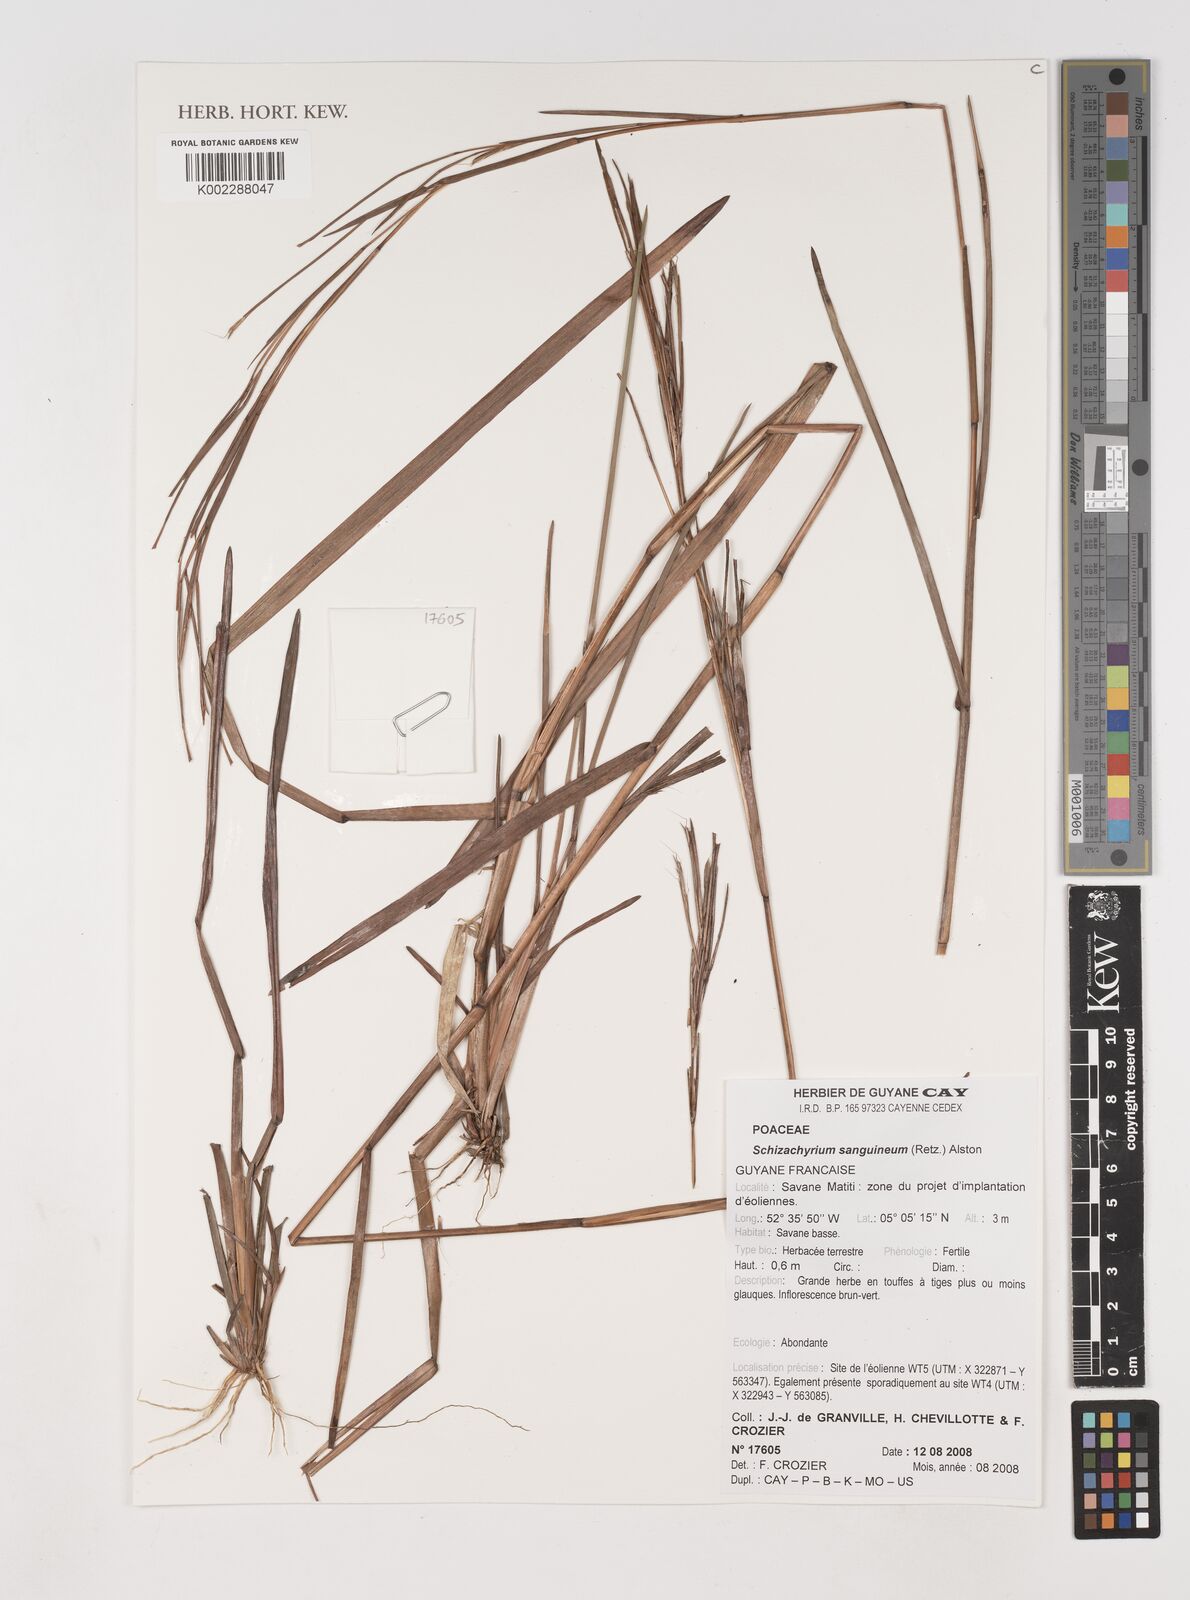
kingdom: Plantae
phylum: Tracheophyta
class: Liliopsida
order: Poales
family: Poaceae
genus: Schizachyrium
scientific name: Schizachyrium sanguineum
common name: Crimson bluestem
